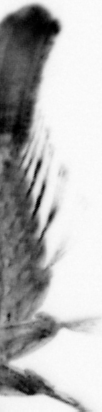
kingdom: Animalia
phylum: Annelida
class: Polychaeta
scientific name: Polychaeta
